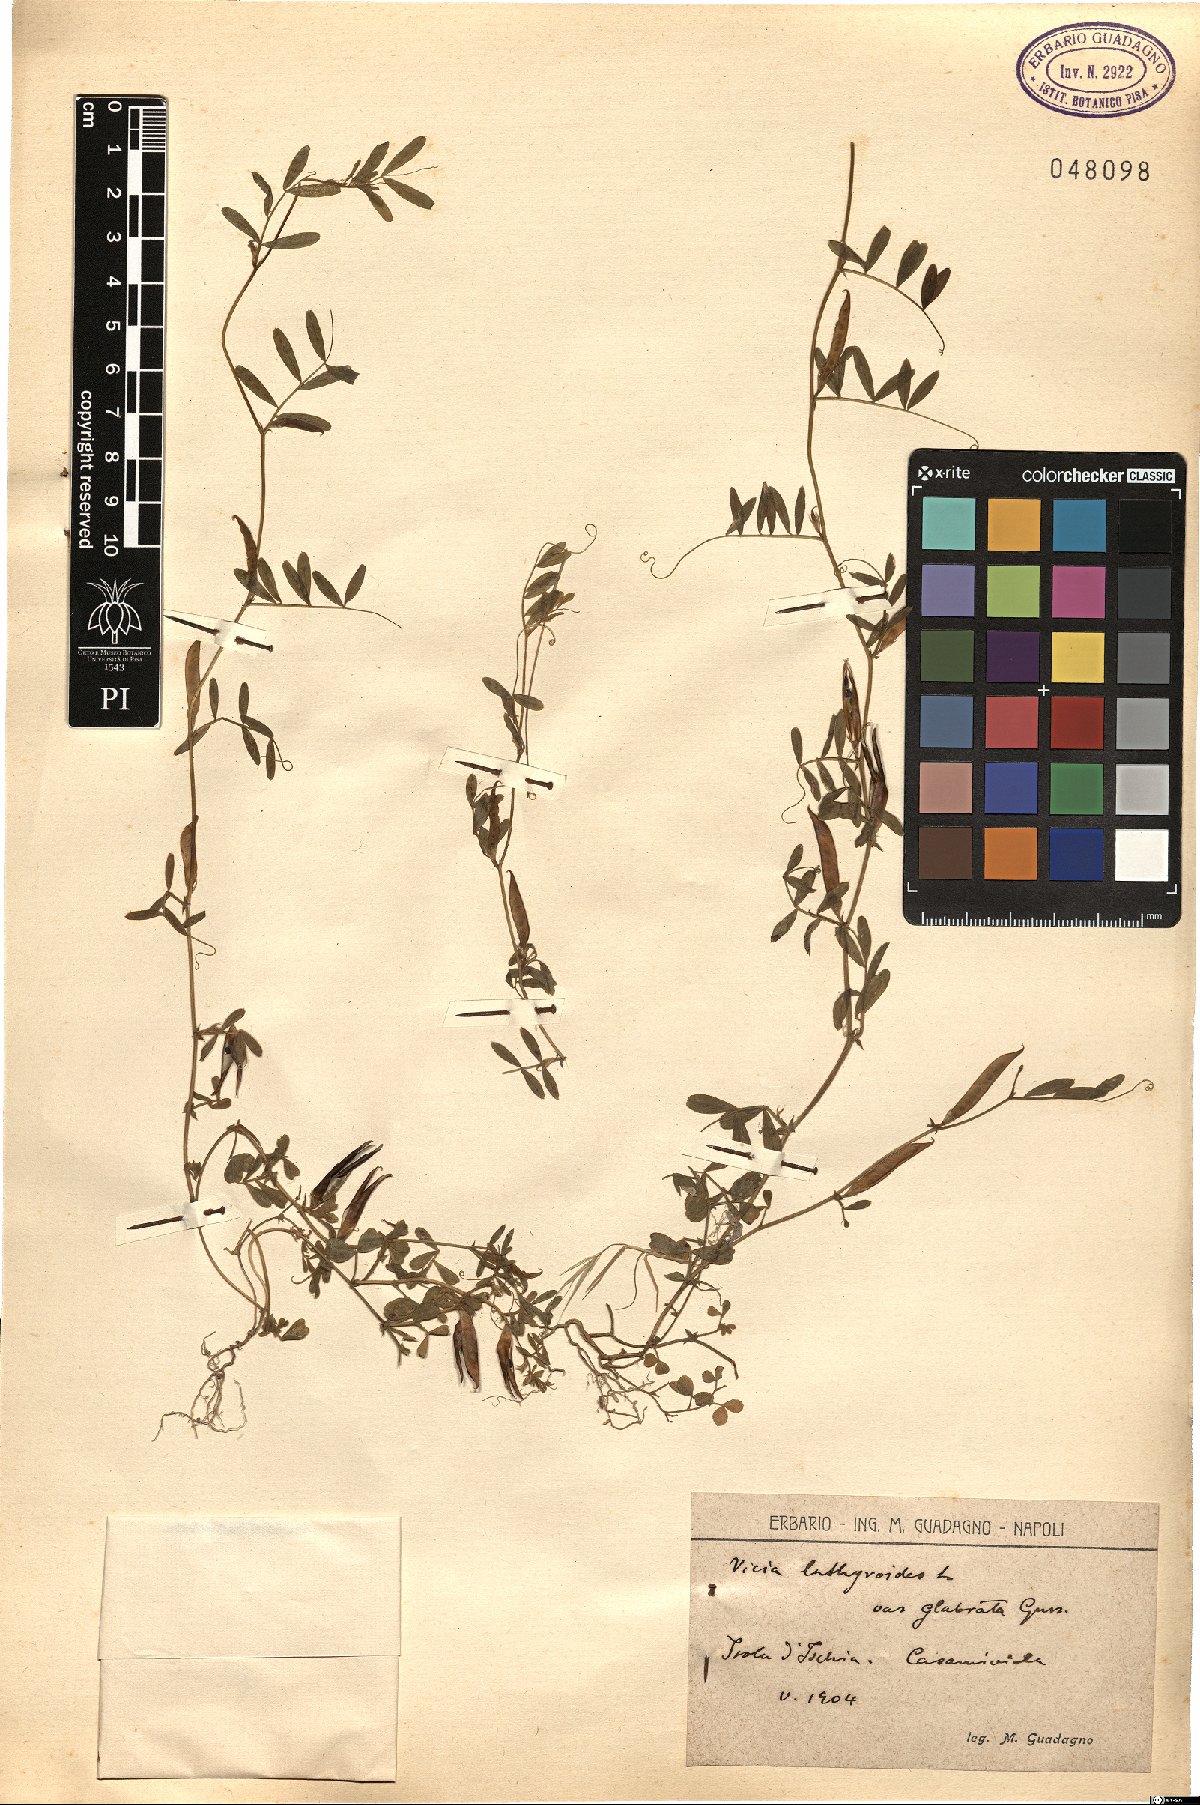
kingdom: Plantae
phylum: Tracheophyta
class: Magnoliopsida
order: Fabales
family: Fabaceae
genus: Vicia
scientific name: Vicia lathyroides
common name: Spring vetch
